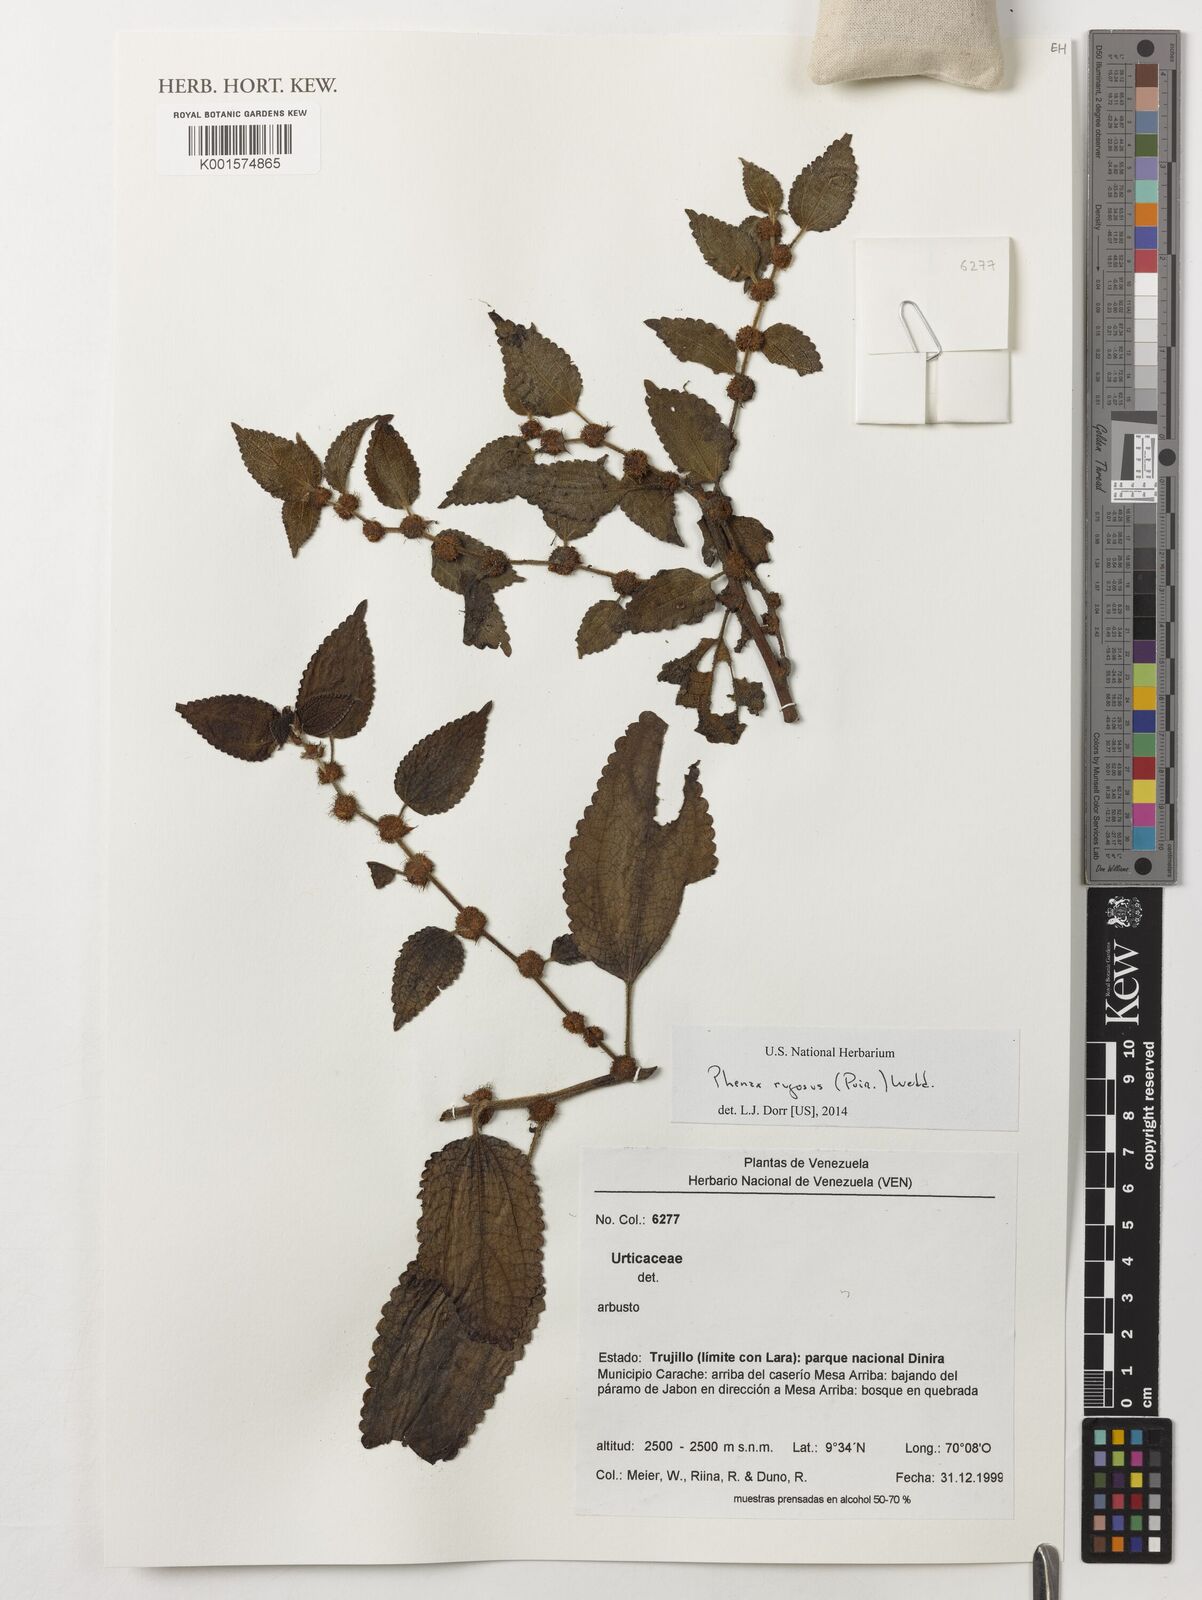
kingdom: Plantae
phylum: Tracheophyta
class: Magnoliopsida
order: Rosales
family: Urticaceae
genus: Phenax
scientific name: Phenax rugosus
